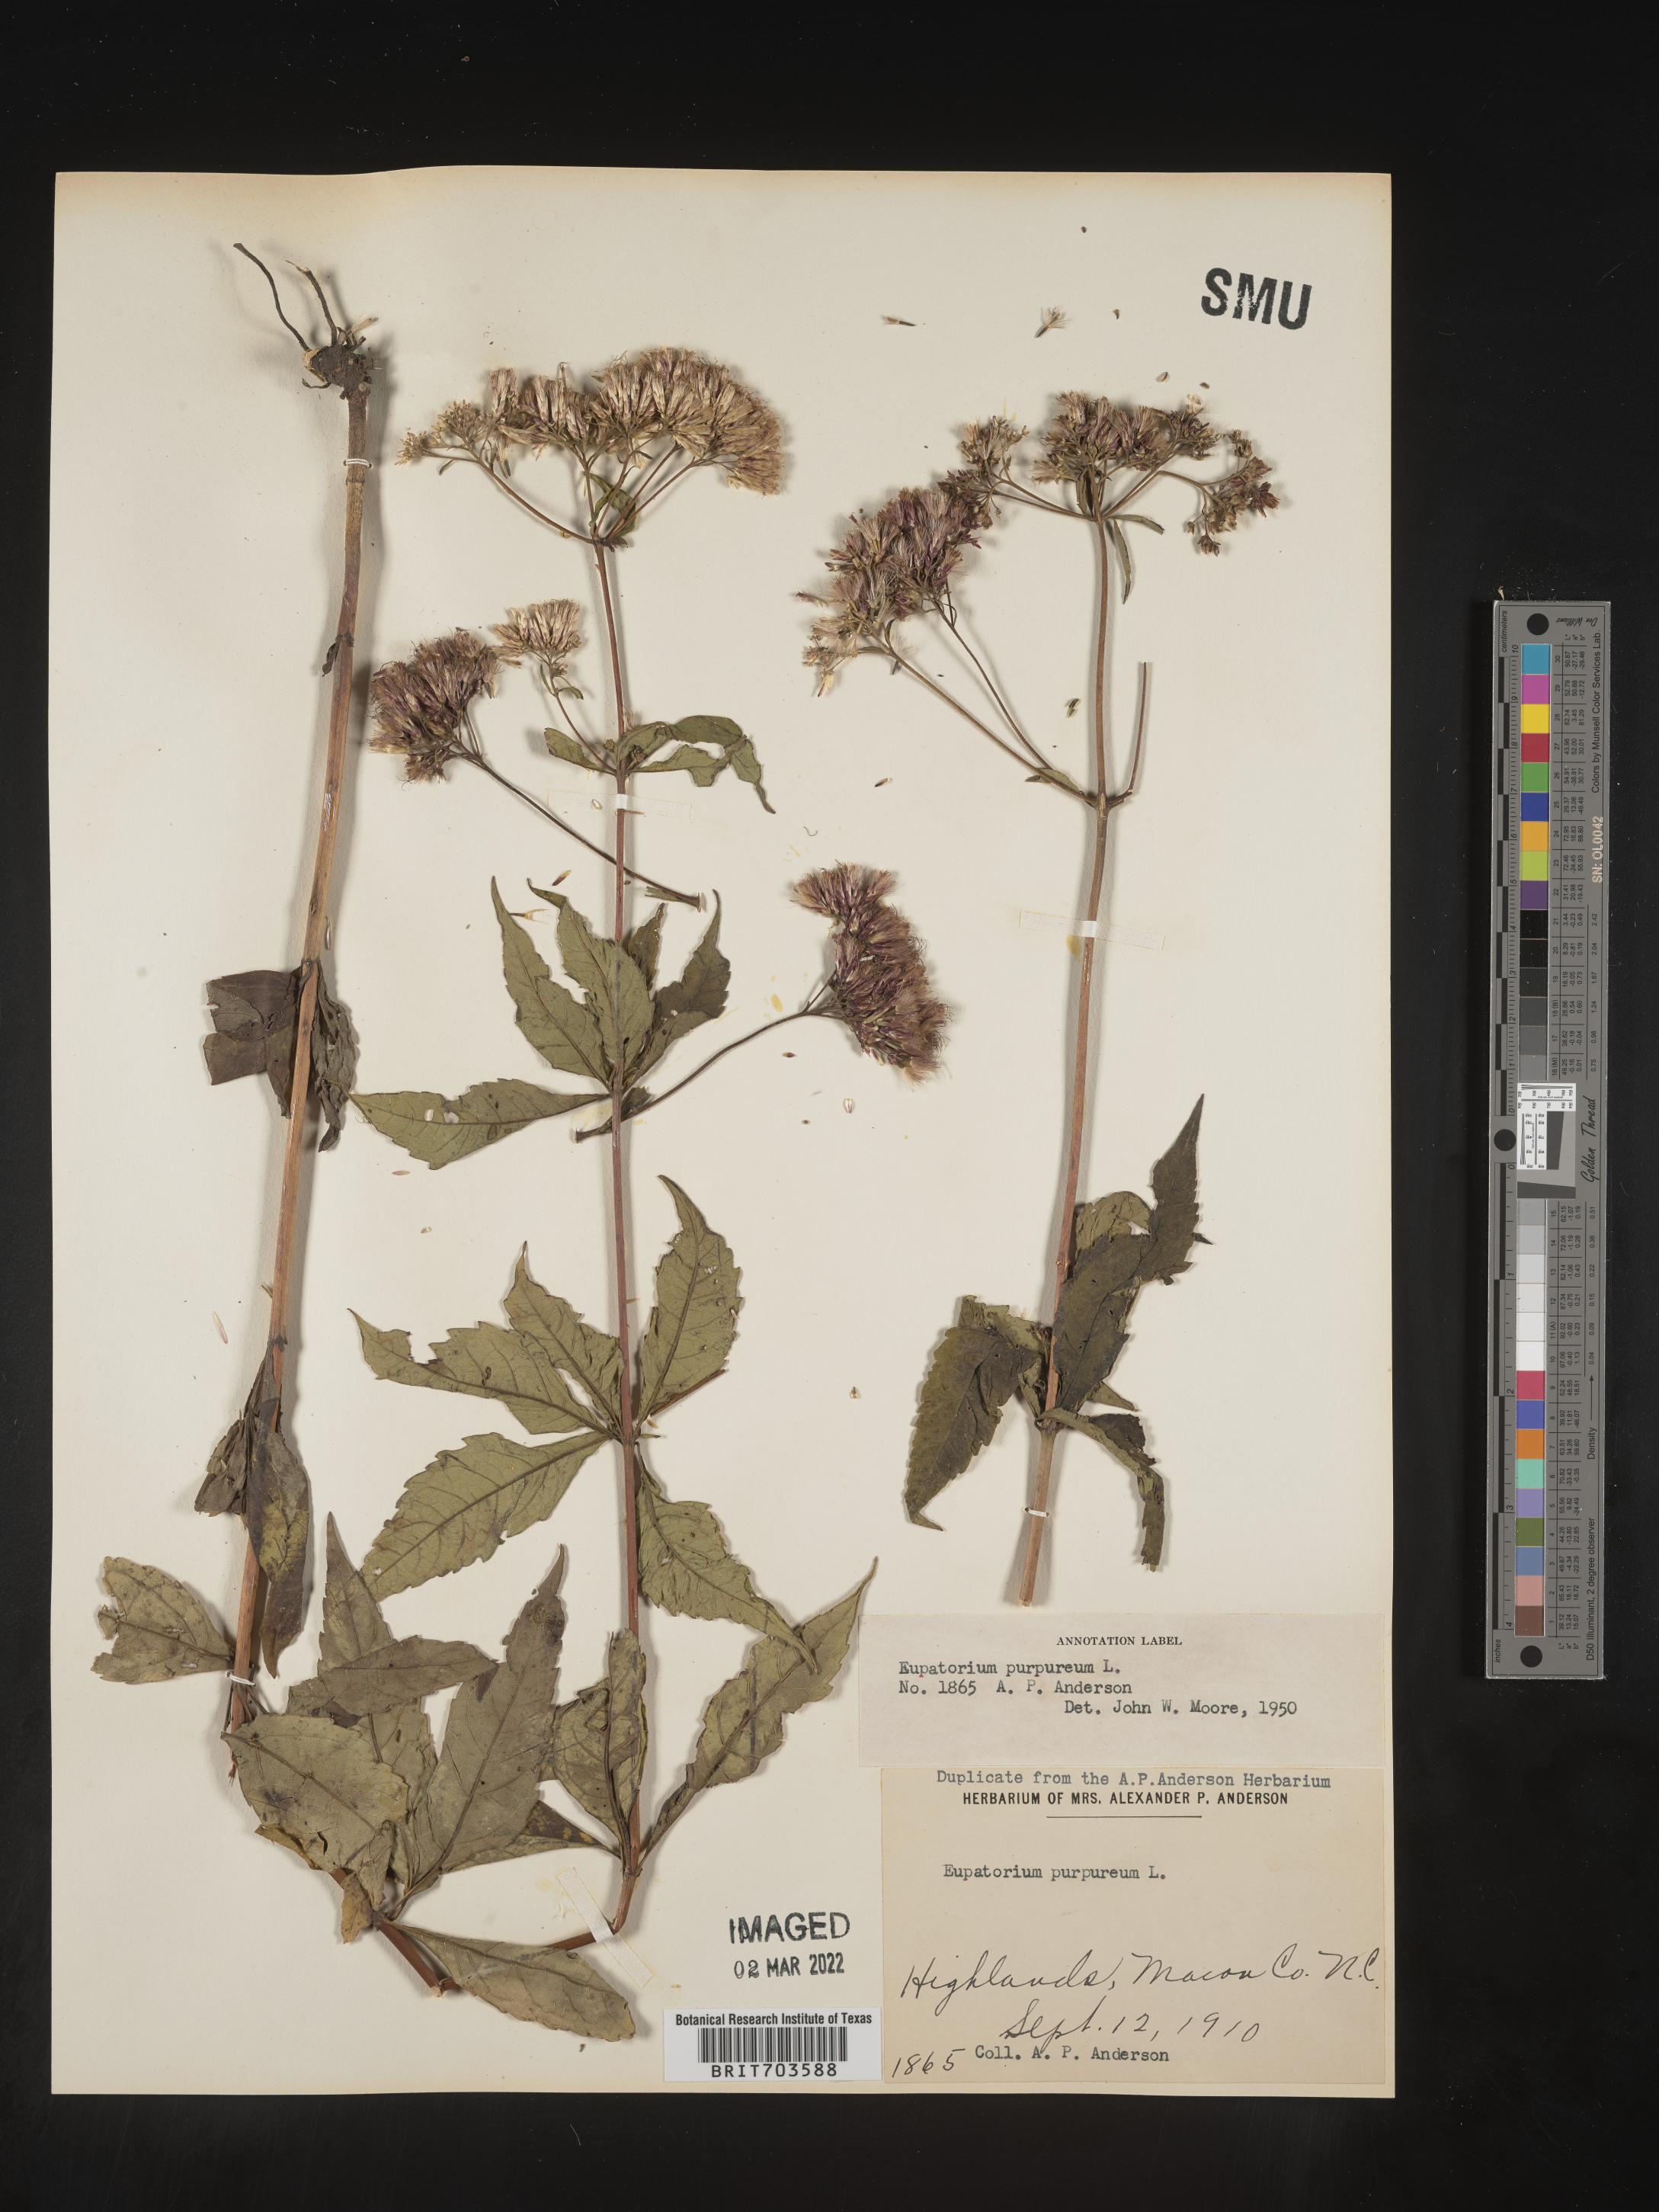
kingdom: Plantae
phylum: Tracheophyta
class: Magnoliopsida
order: Asterales
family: Asteraceae
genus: Eupatorium
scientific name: Eupatorium quaternum
